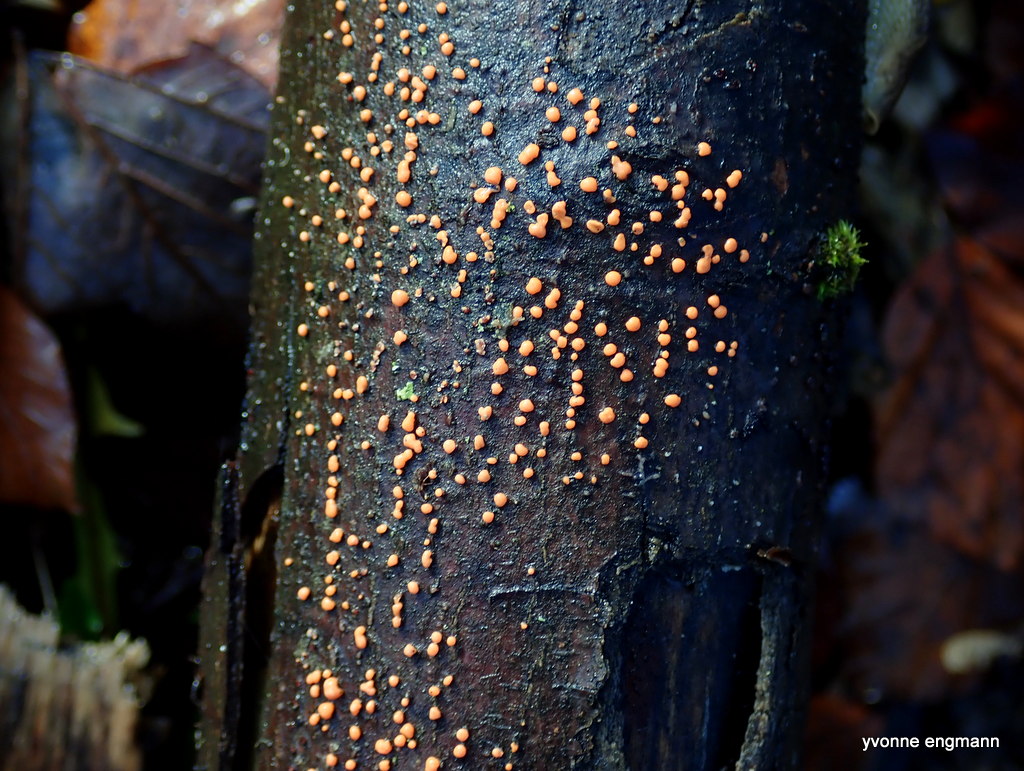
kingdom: Fungi
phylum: Ascomycota
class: Sordariomycetes
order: Hypocreales
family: Nectriaceae
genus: Nectria
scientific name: Nectria cinnabarina
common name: almindelig cinnobersvamp
